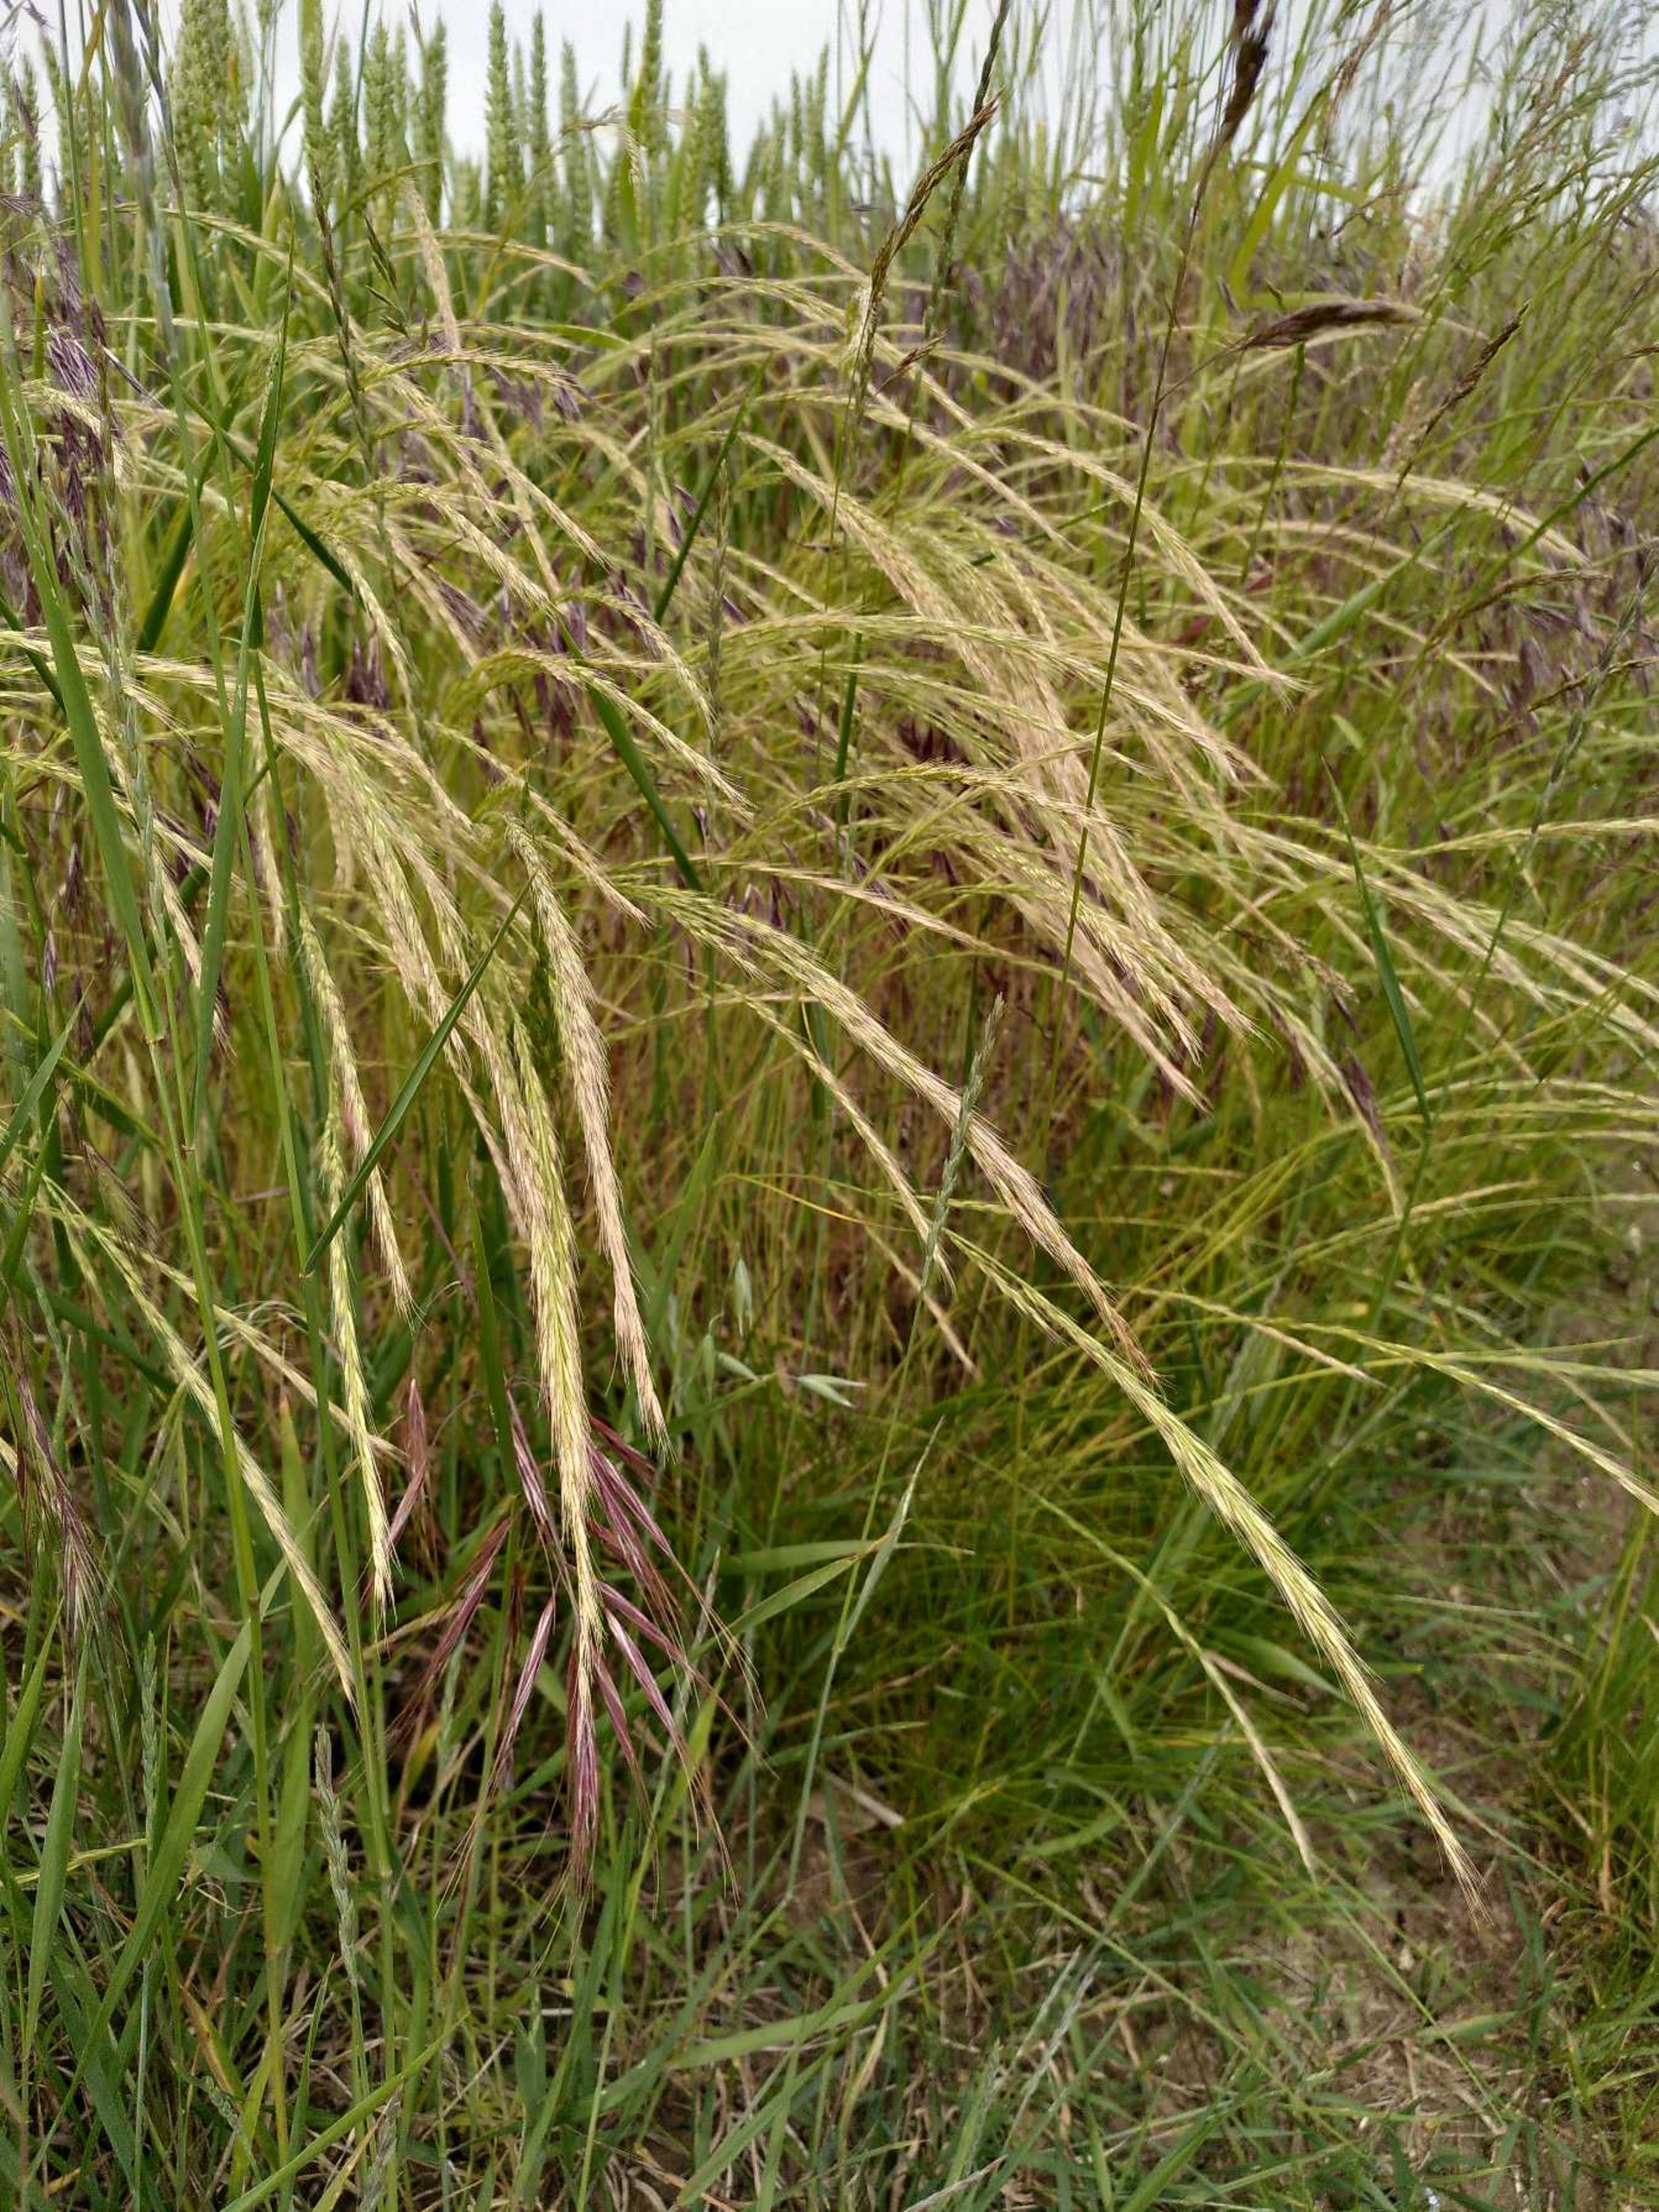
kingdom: Plantae
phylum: Tracheophyta
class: Liliopsida
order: Poales
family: Poaceae
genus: Festuca
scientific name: Festuca myuros
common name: Stor væselhale
